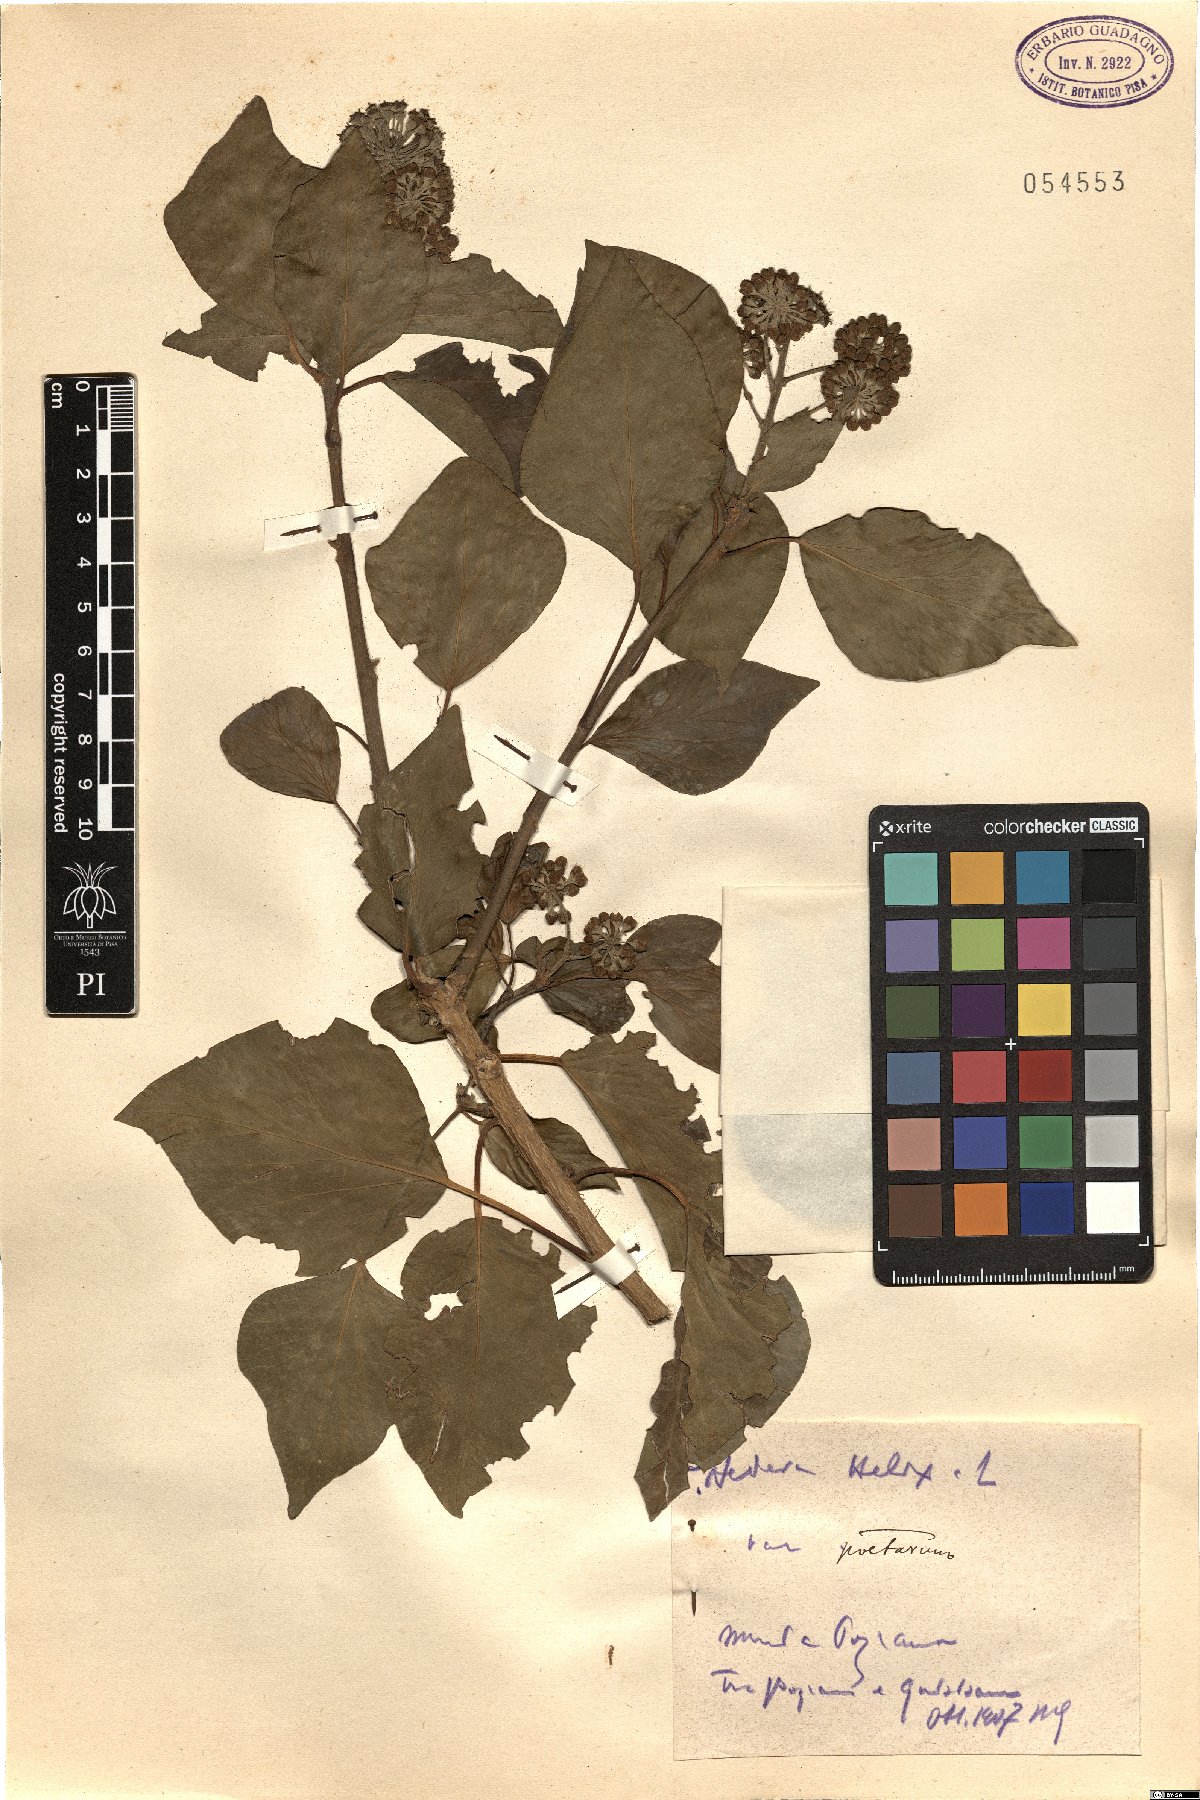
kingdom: Plantae
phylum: Tracheophyta
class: Magnoliopsida
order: Apiales
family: Araliaceae
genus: Hedera
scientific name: Hedera helix
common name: Ivy
